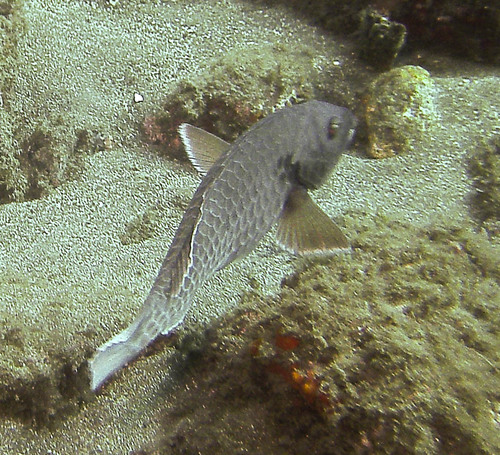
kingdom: Animalia
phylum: Chordata
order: Perciformes
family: Scaridae
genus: Sparisoma
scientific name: Sparisoma cretense
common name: Parrotfish
